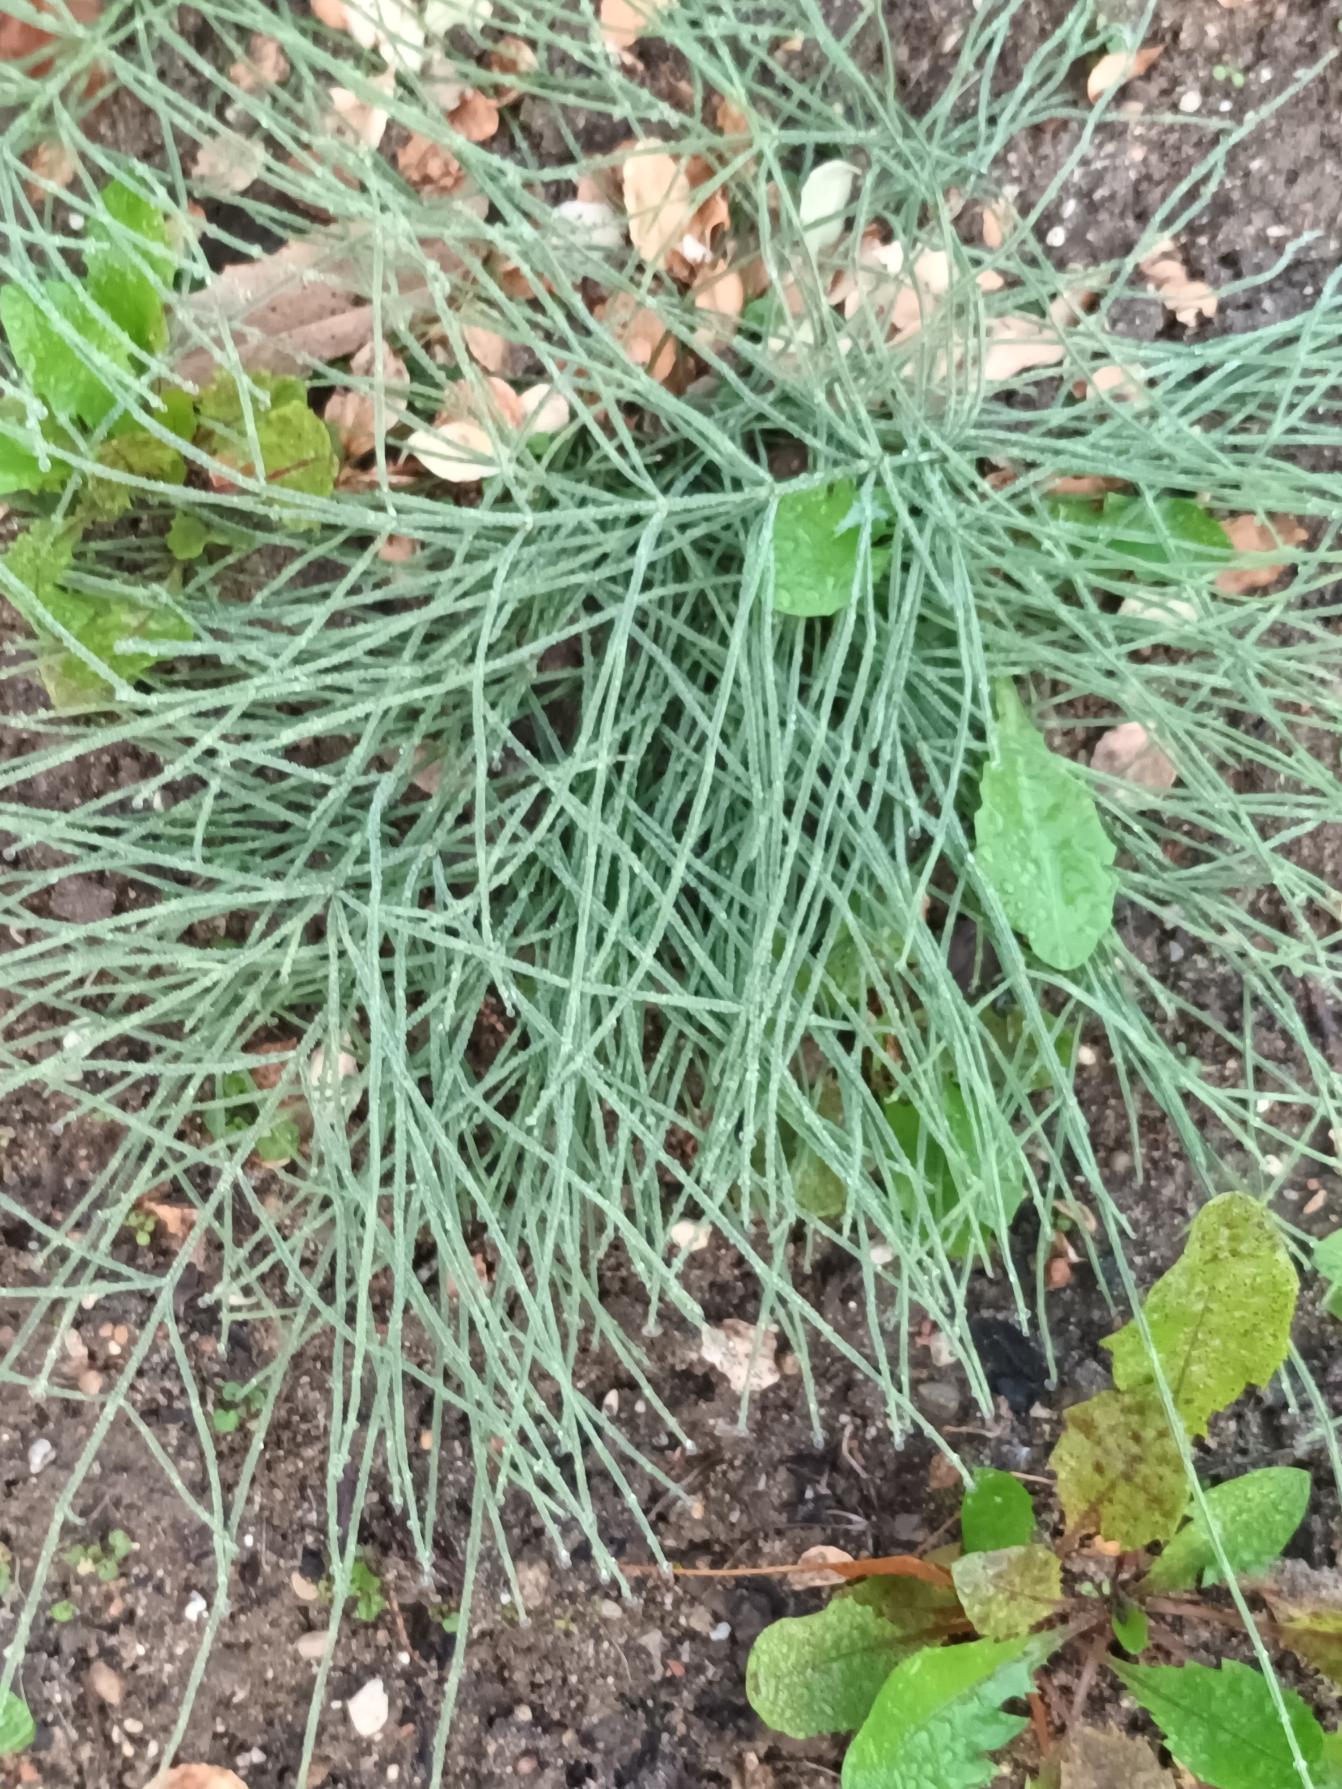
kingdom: Plantae
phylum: Tracheophyta
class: Polypodiopsida
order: Equisetales
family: Equisetaceae
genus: Equisetum
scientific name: Equisetum arvense
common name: Ager-padderok
